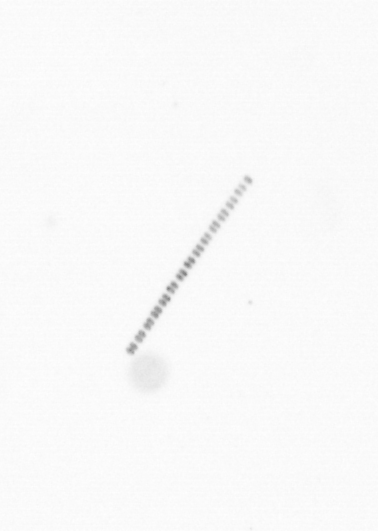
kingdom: Chromista
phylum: Ochrophyta
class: Bacillariophyceae
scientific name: Bacillariophyceae
